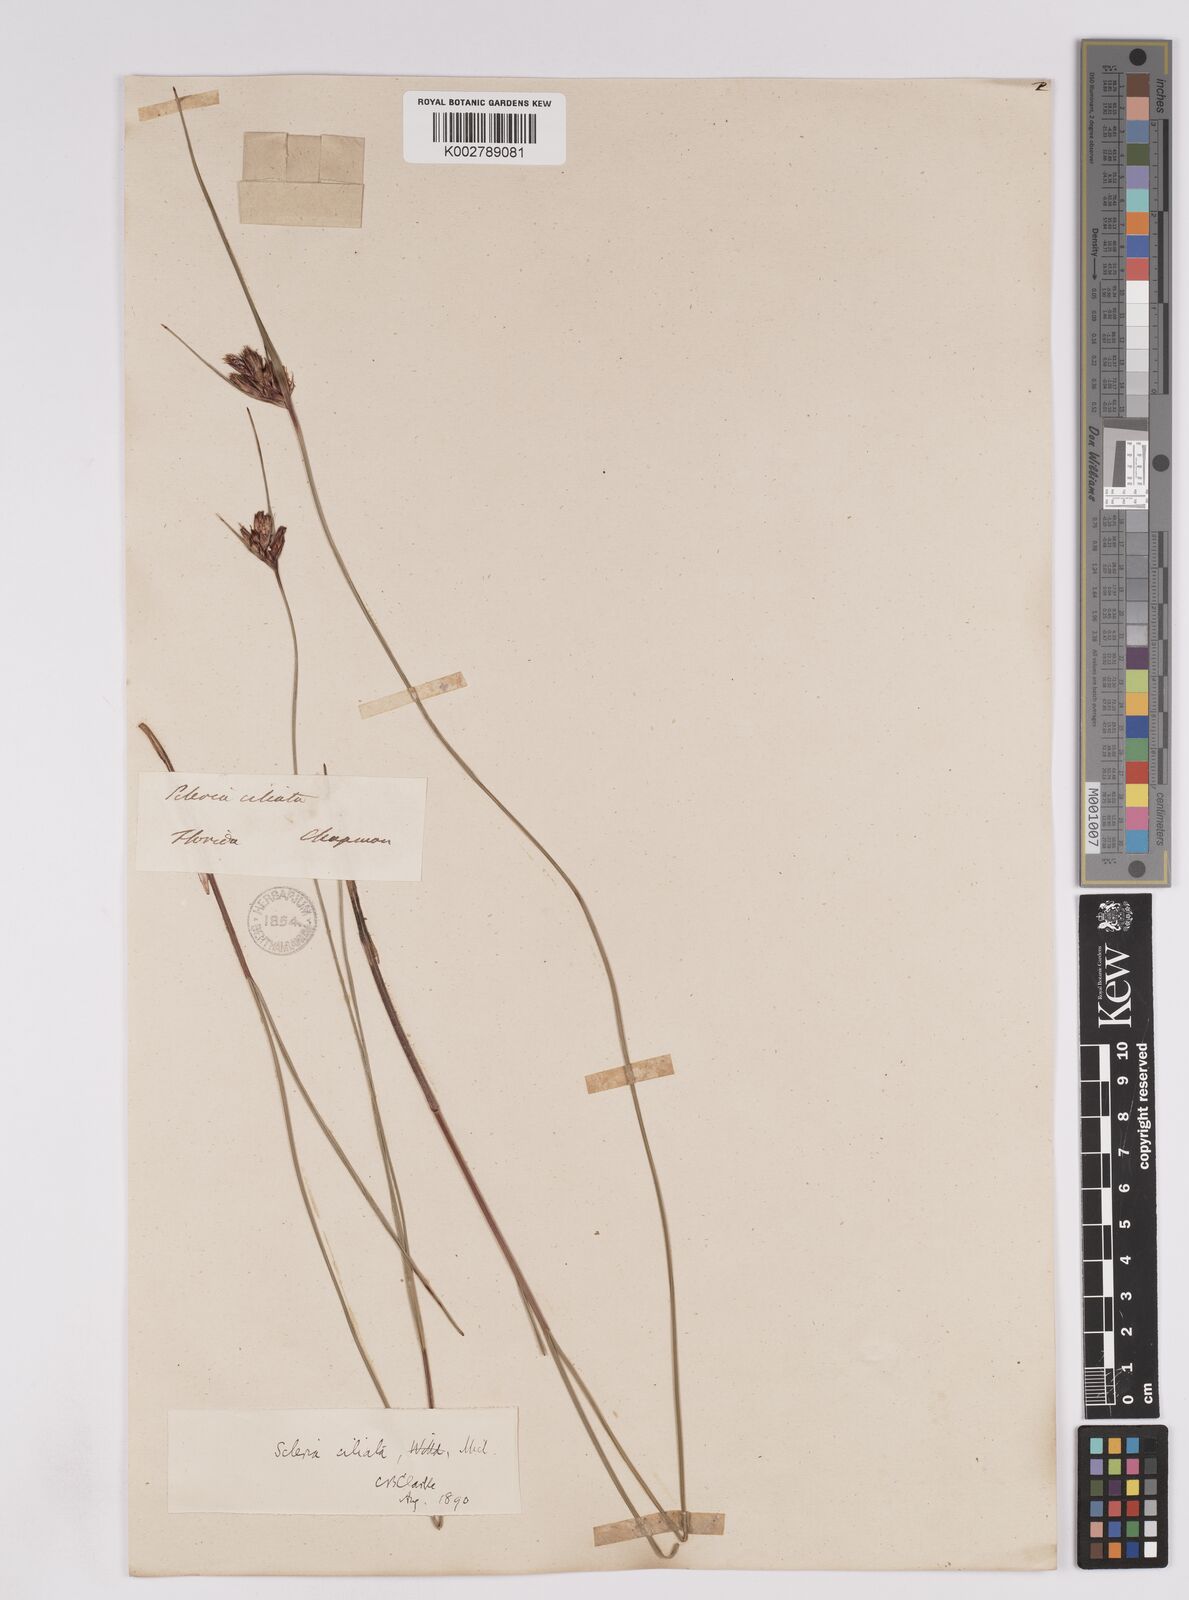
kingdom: Plantae
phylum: Tracheophyta
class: Liliopsida
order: Poales
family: Cyperaceae
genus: Scleria
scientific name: Scleria ciliata
